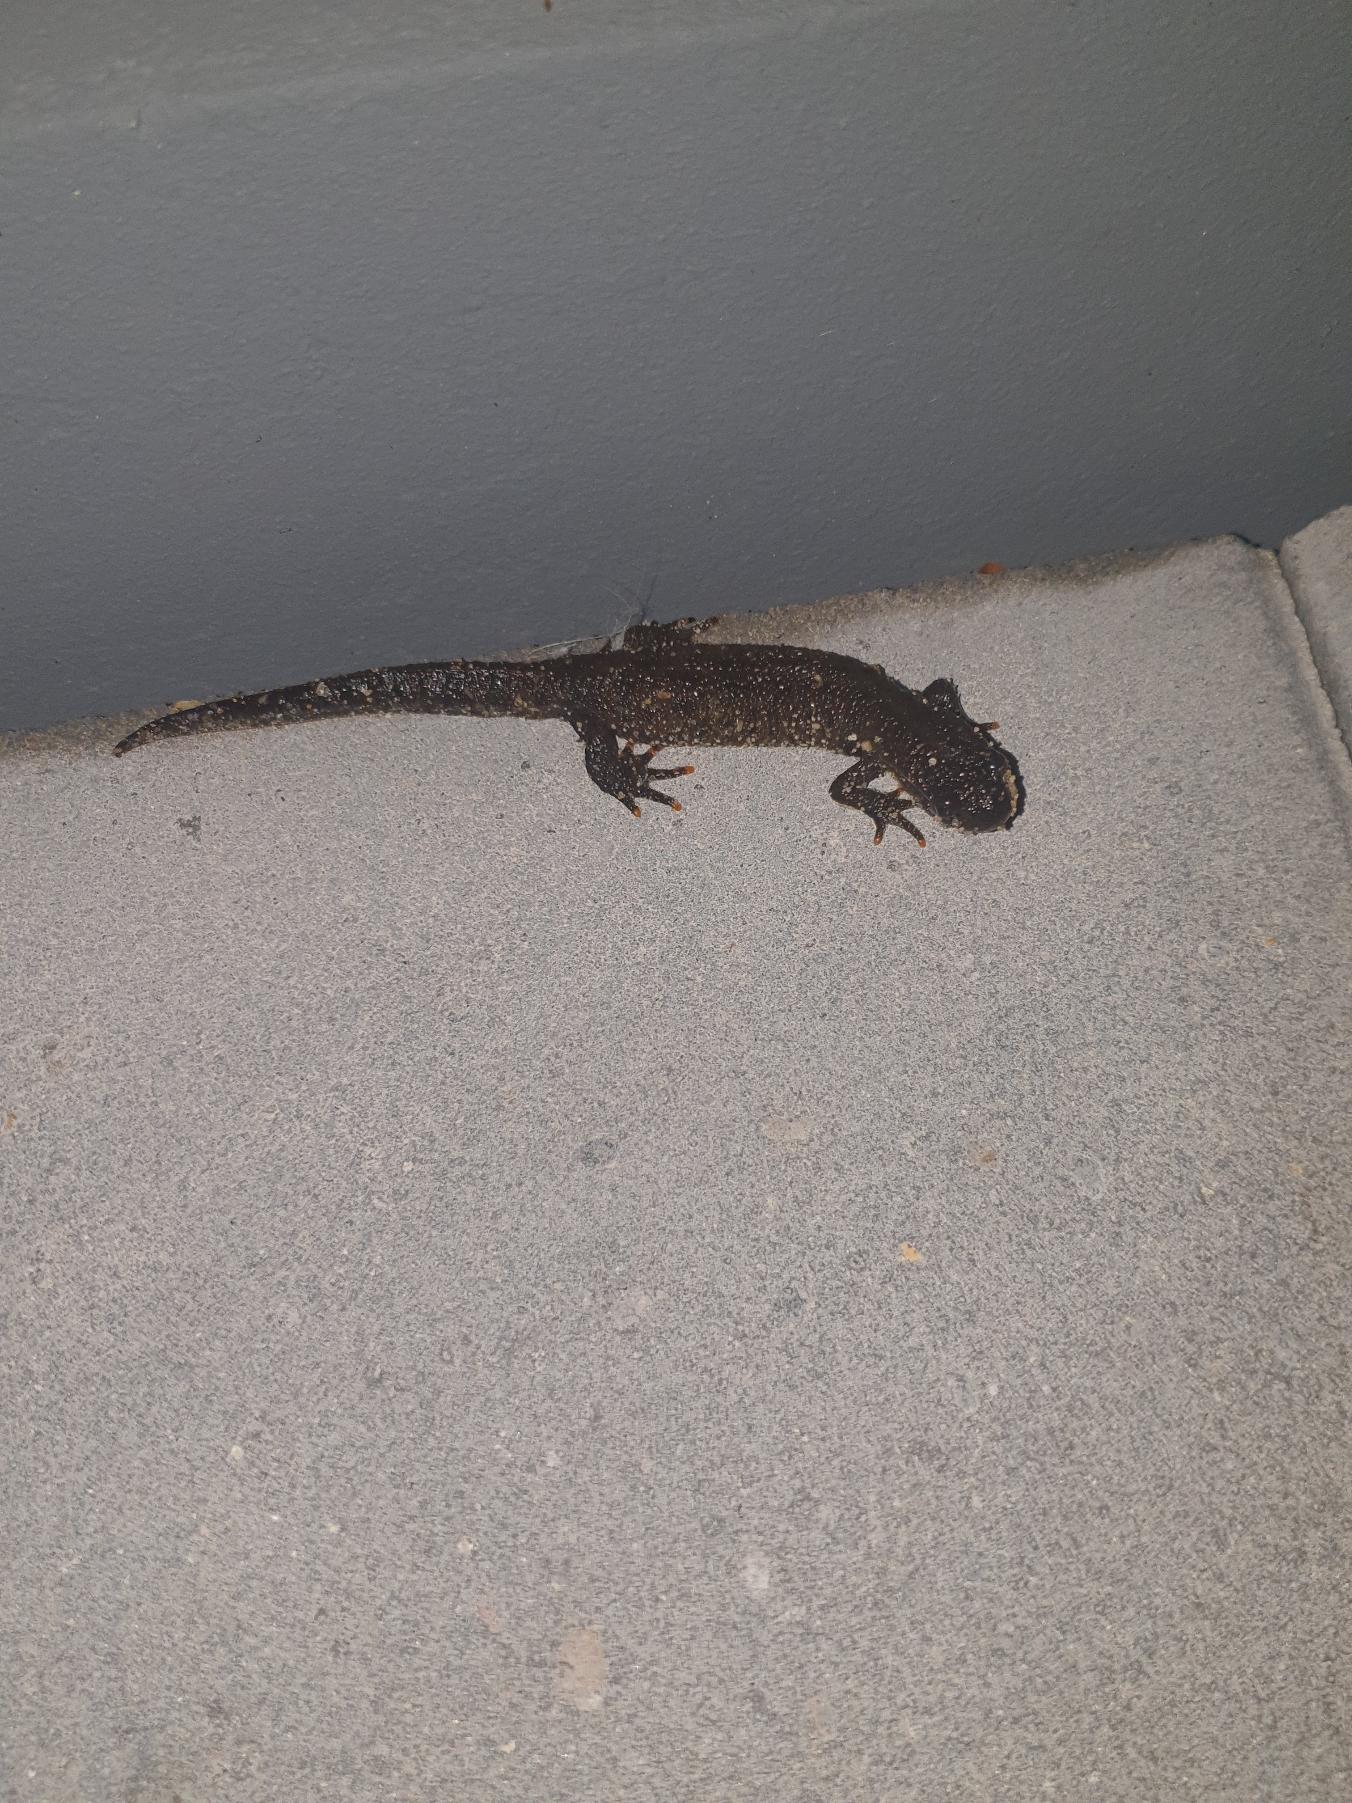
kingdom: Animalia
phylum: Chordata
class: Amphibia
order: Caudata
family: Salamandridae
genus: Triturus
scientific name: Triturus cristatus
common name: Stor vandsalamander
